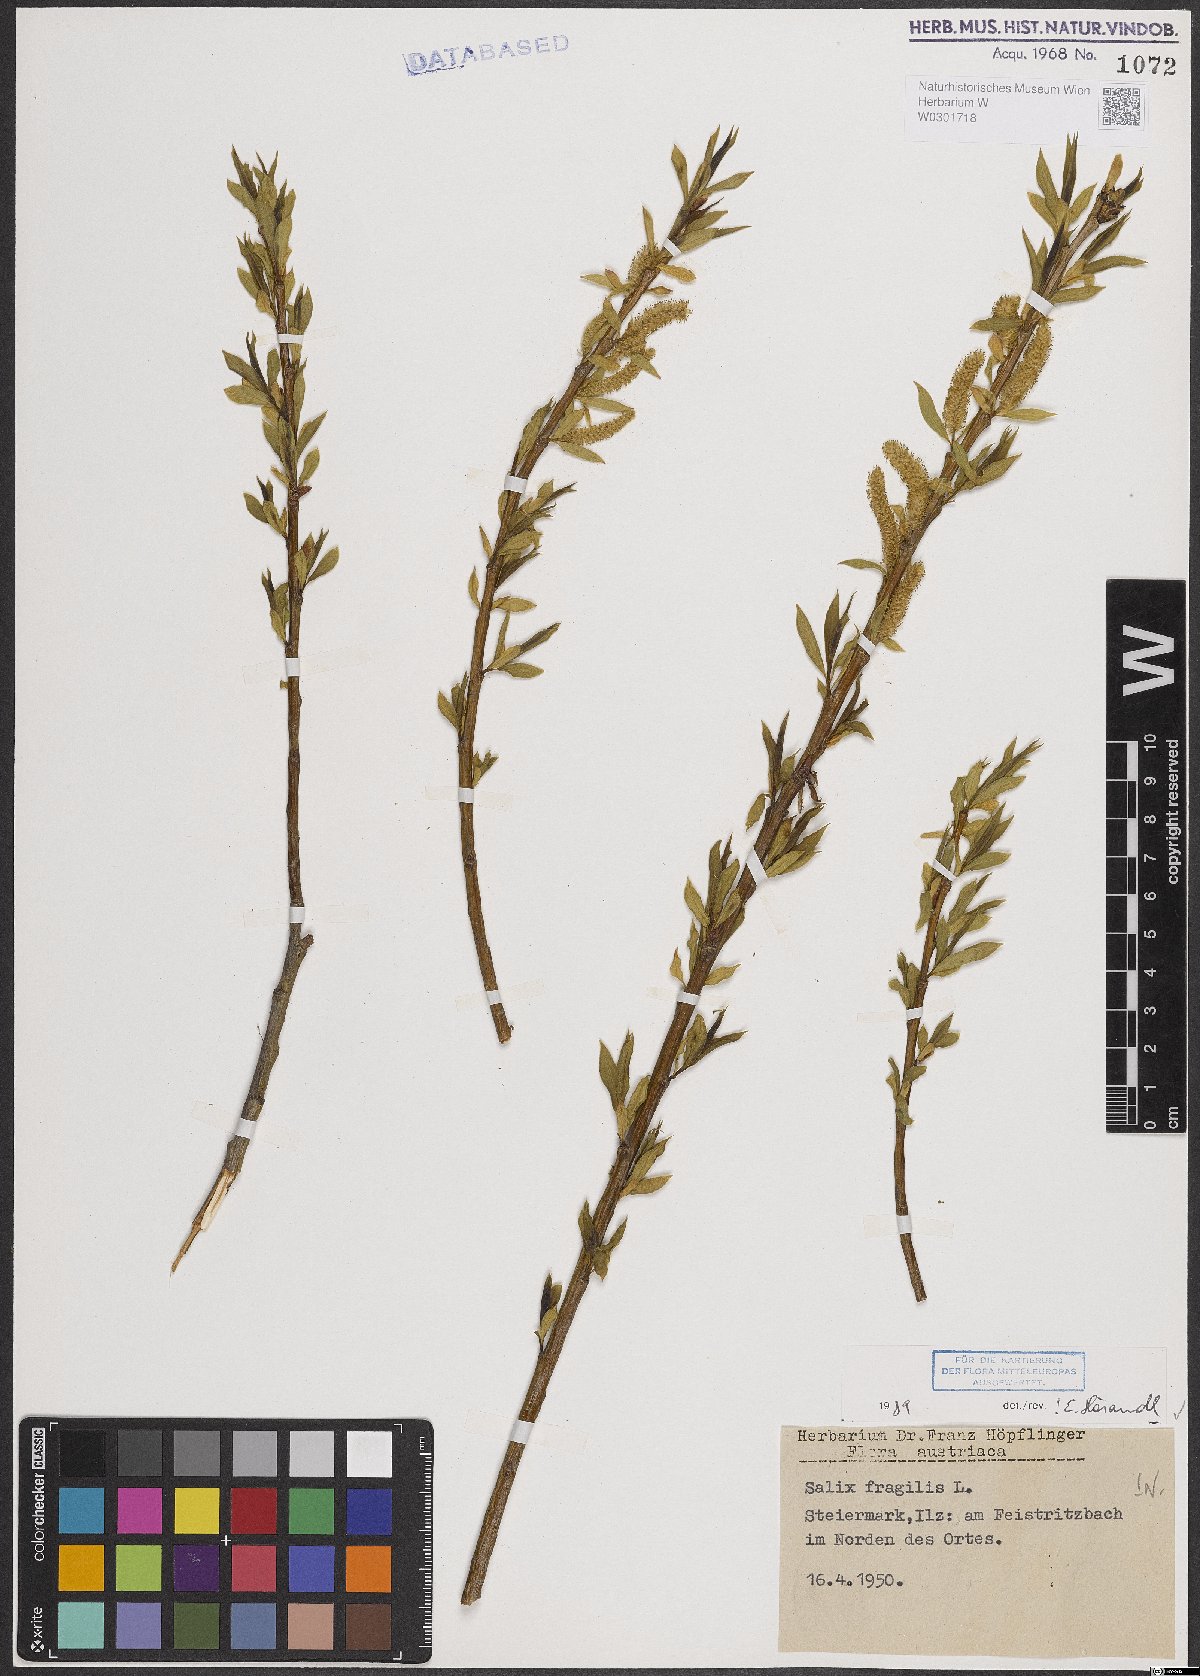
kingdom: Plantae
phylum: Tracheophyta
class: Magnoliopsida
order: Malpighiales
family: Salicaceae
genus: Salix
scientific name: Salix fragilis
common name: Crack willow
